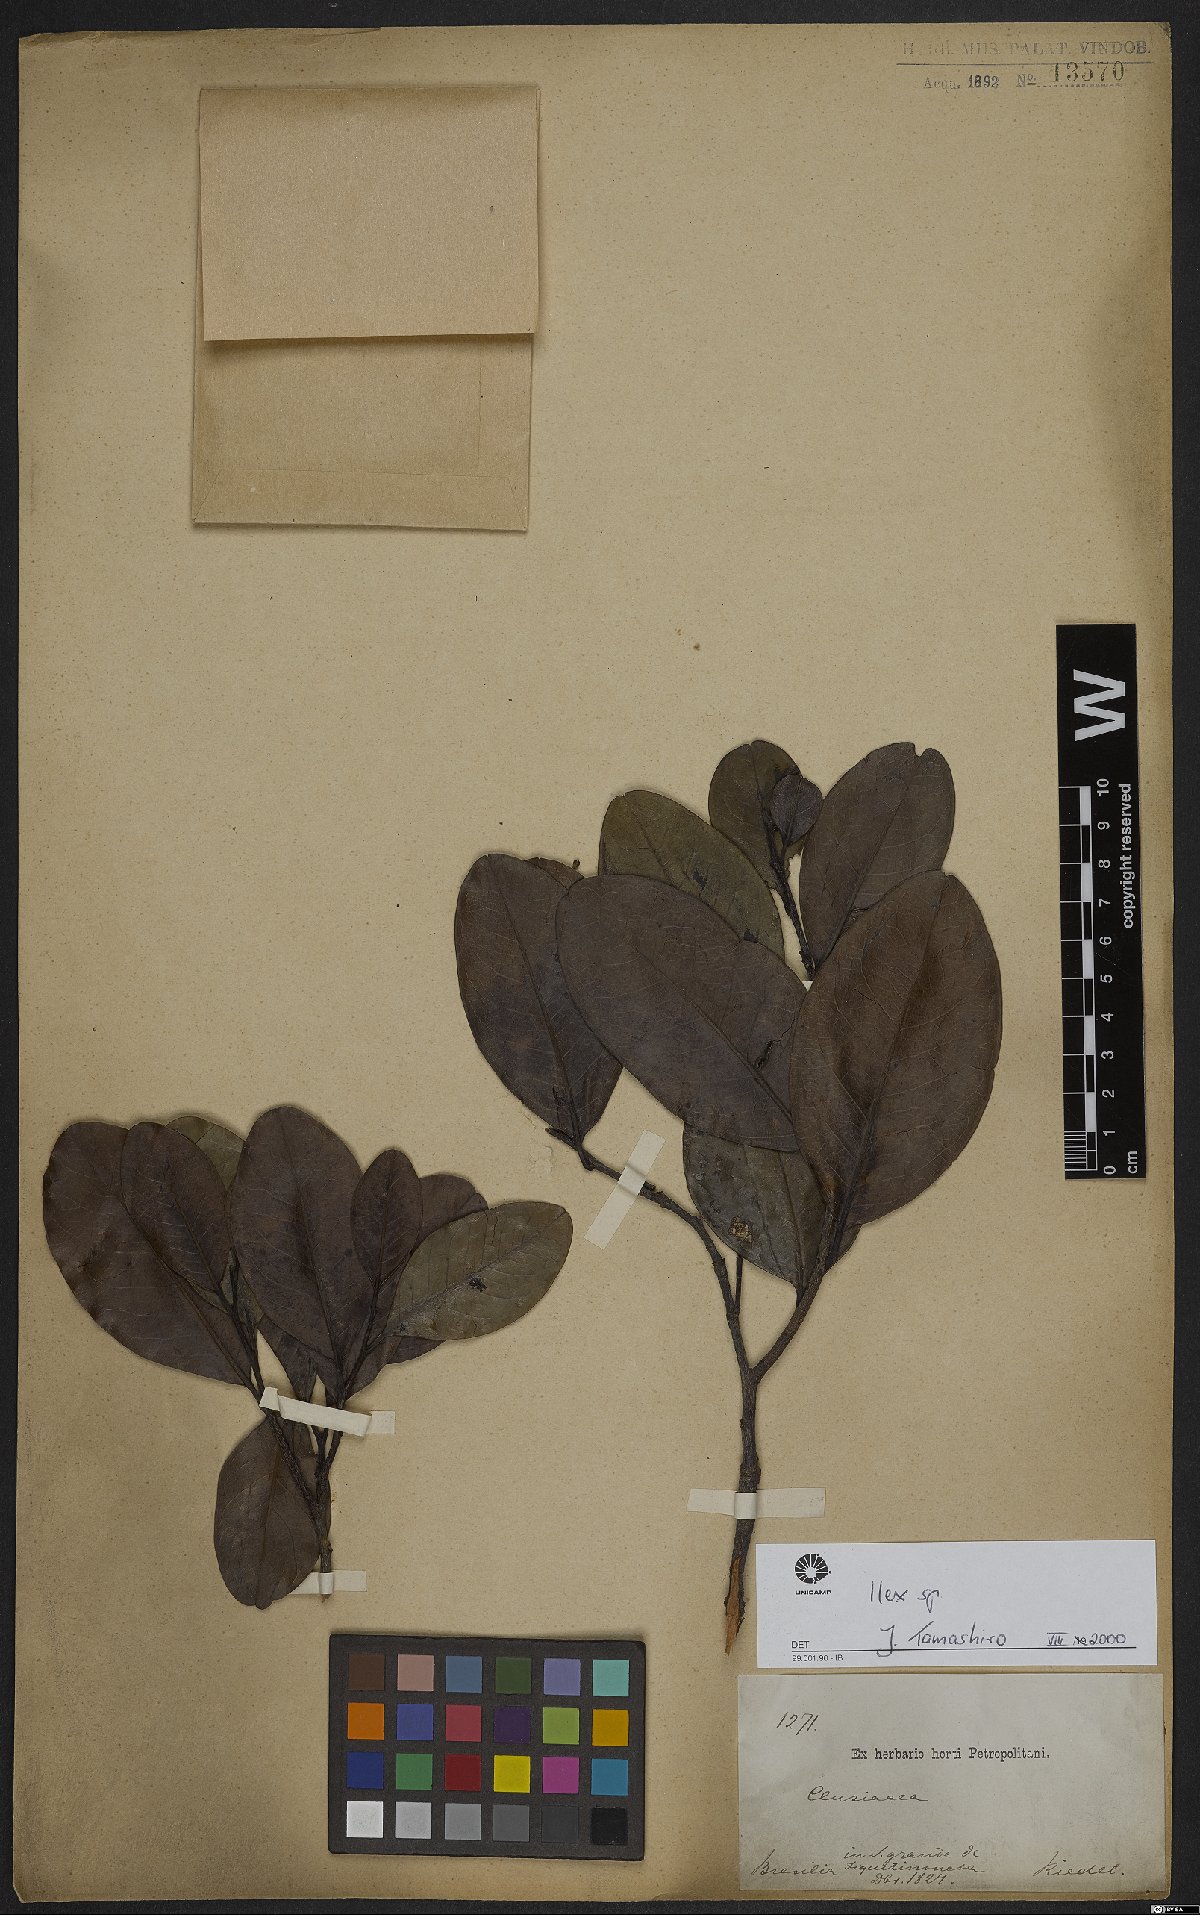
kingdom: Plantae
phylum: Tracheophyta
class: Magnoliopsida
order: Aquifoliales
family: Aquifoliaceae
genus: Ilex
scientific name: Ilex
